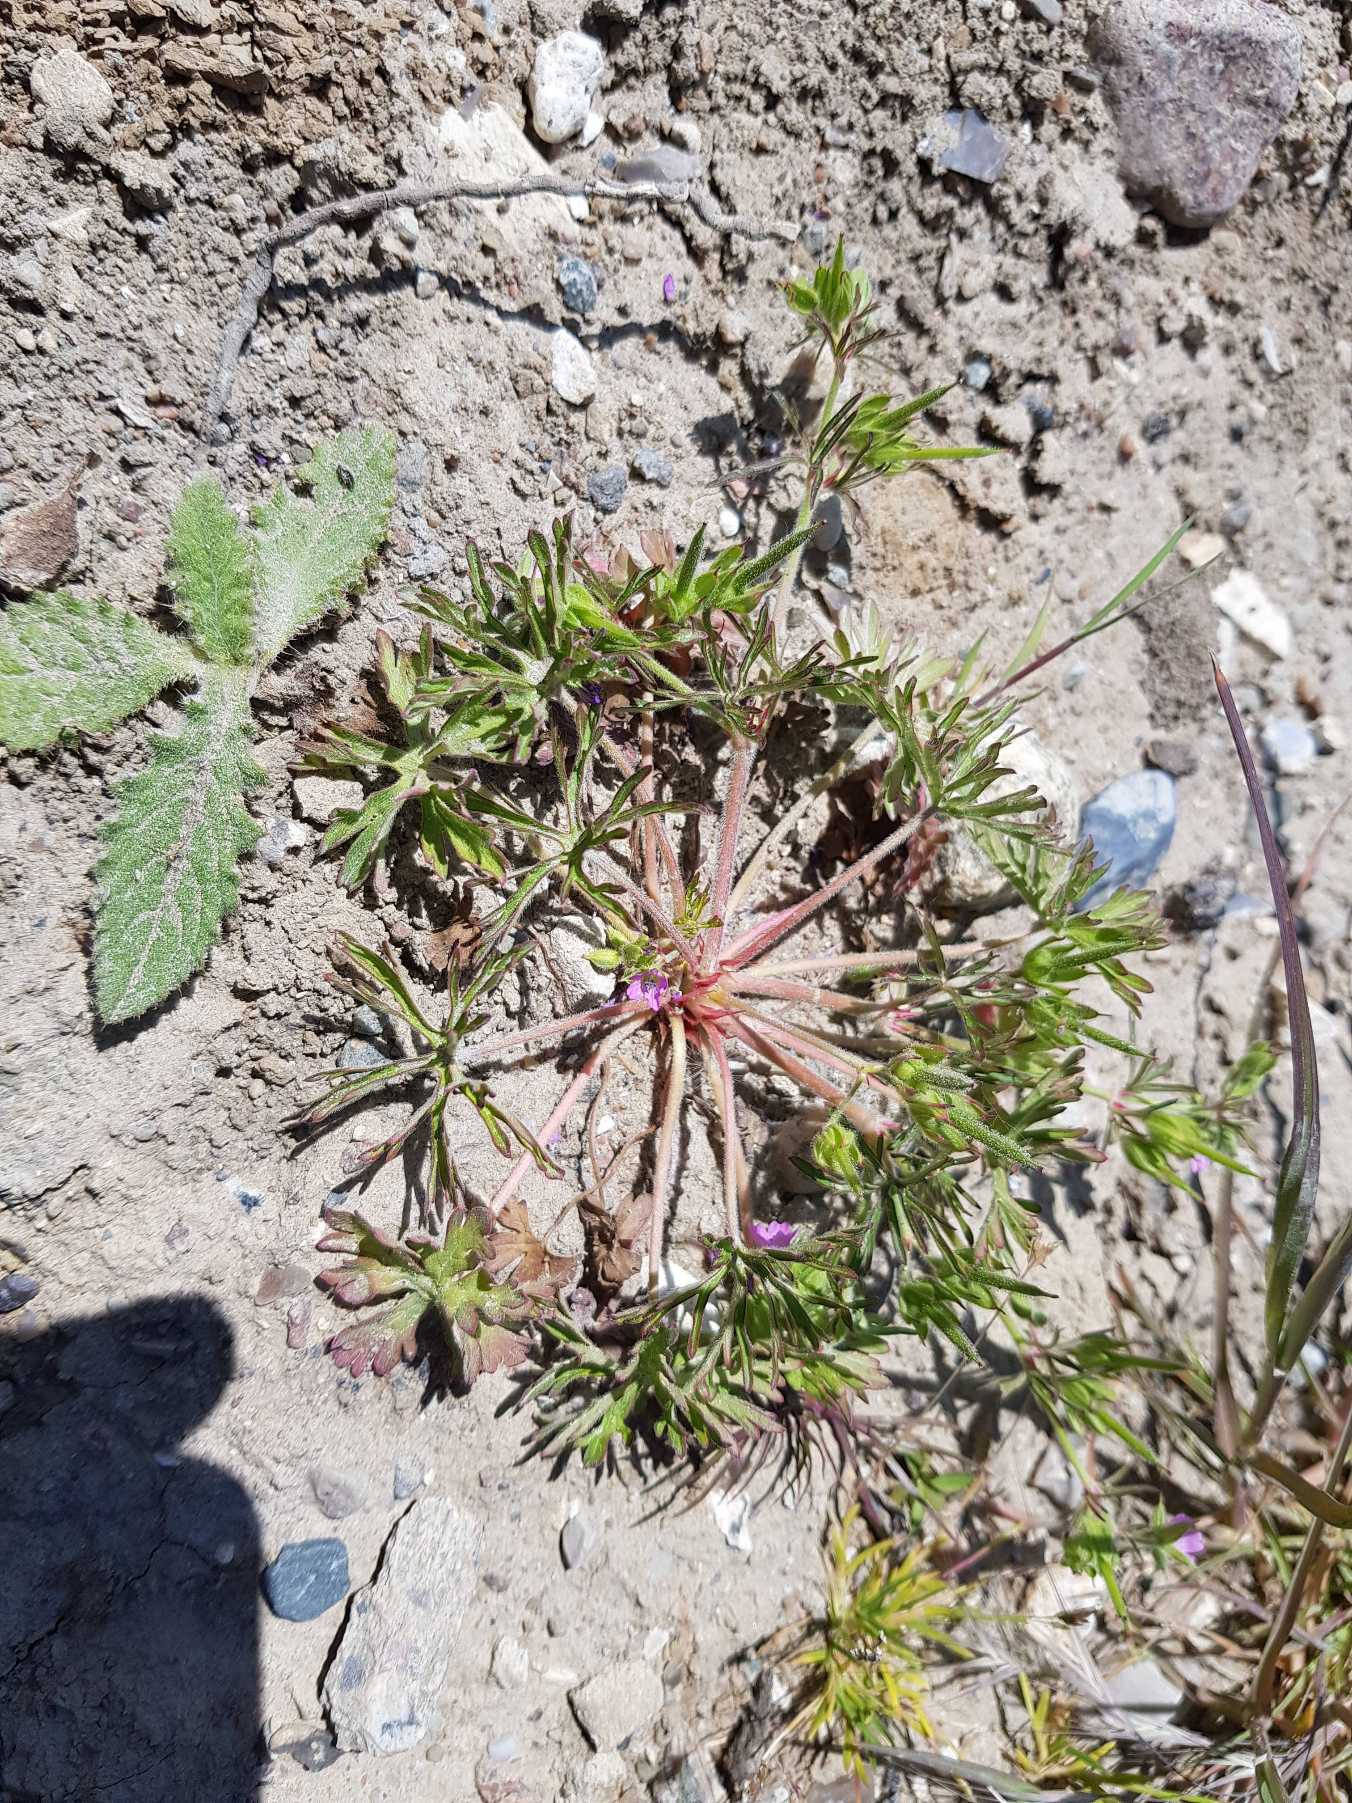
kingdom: Plantae
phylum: Tracheophyta
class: Magnoliopsida
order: Geraniales
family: Geraniaceae
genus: Geranium
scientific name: Geranium dissectum
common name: Kløftet storkenæb
